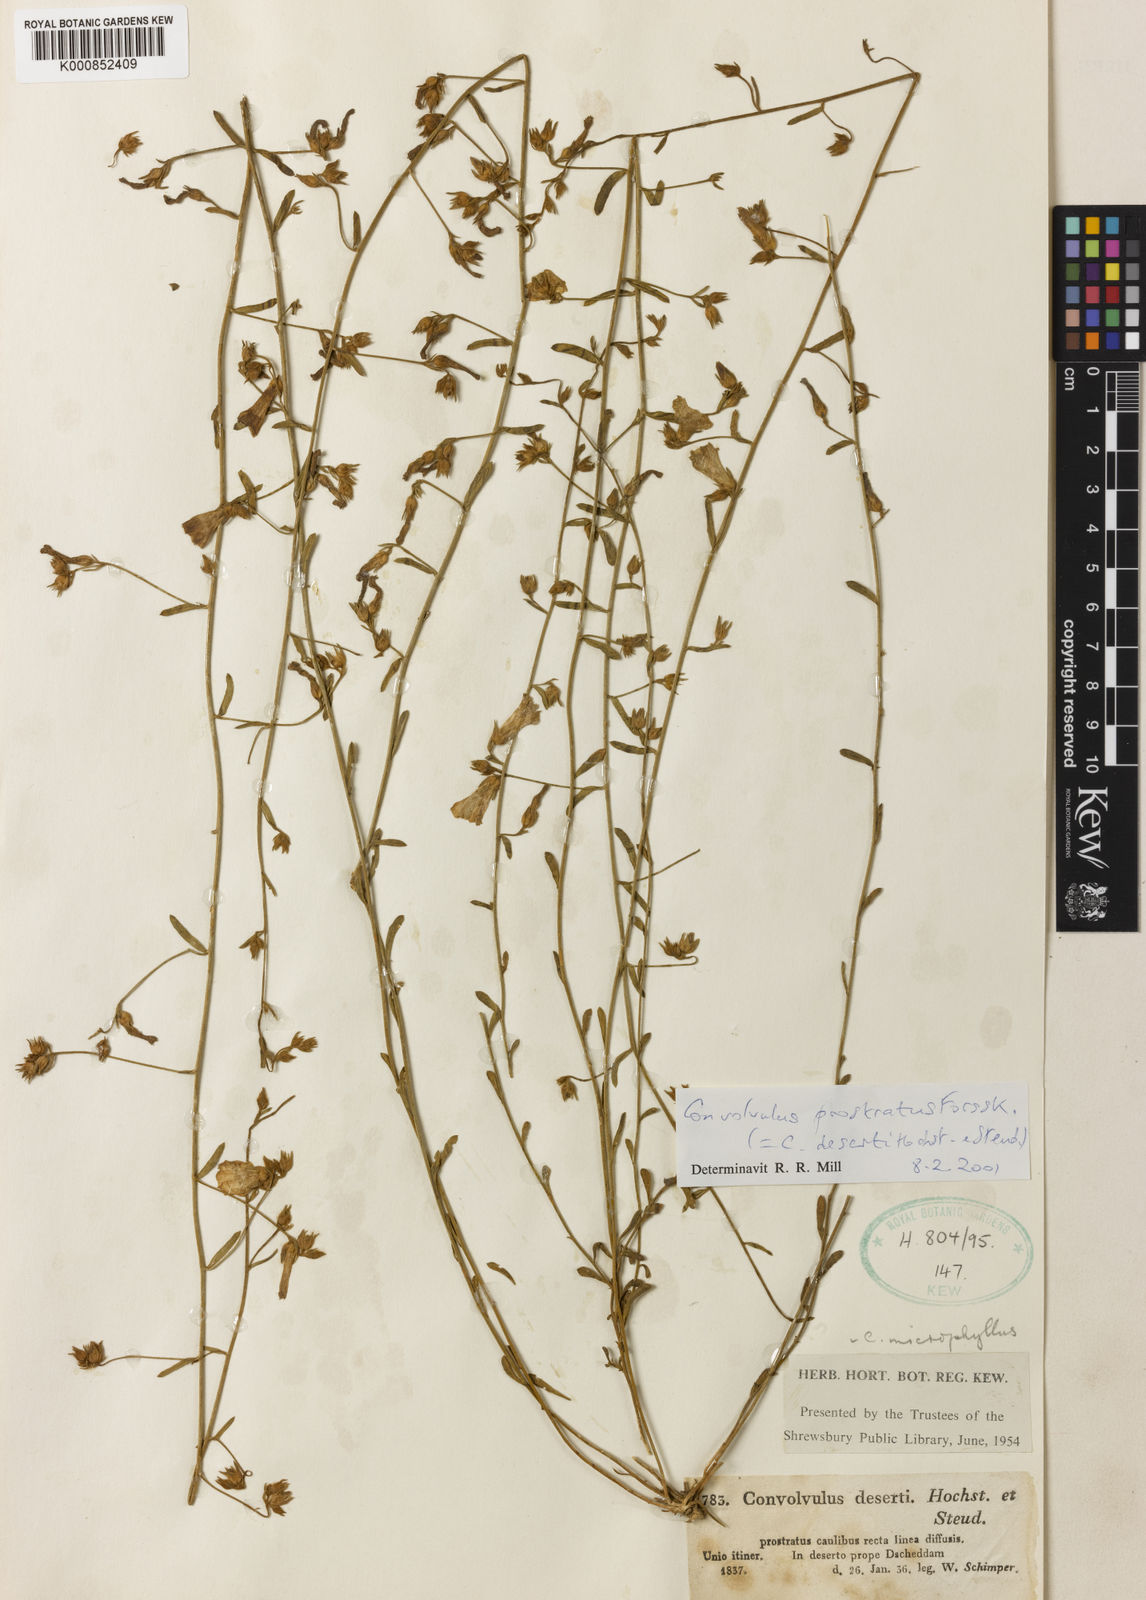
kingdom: Plantae
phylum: Tracheophyta
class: Magnoliopsida
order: Solanales
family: Convolvulaceae
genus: Convolvulus
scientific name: Convolvulus
